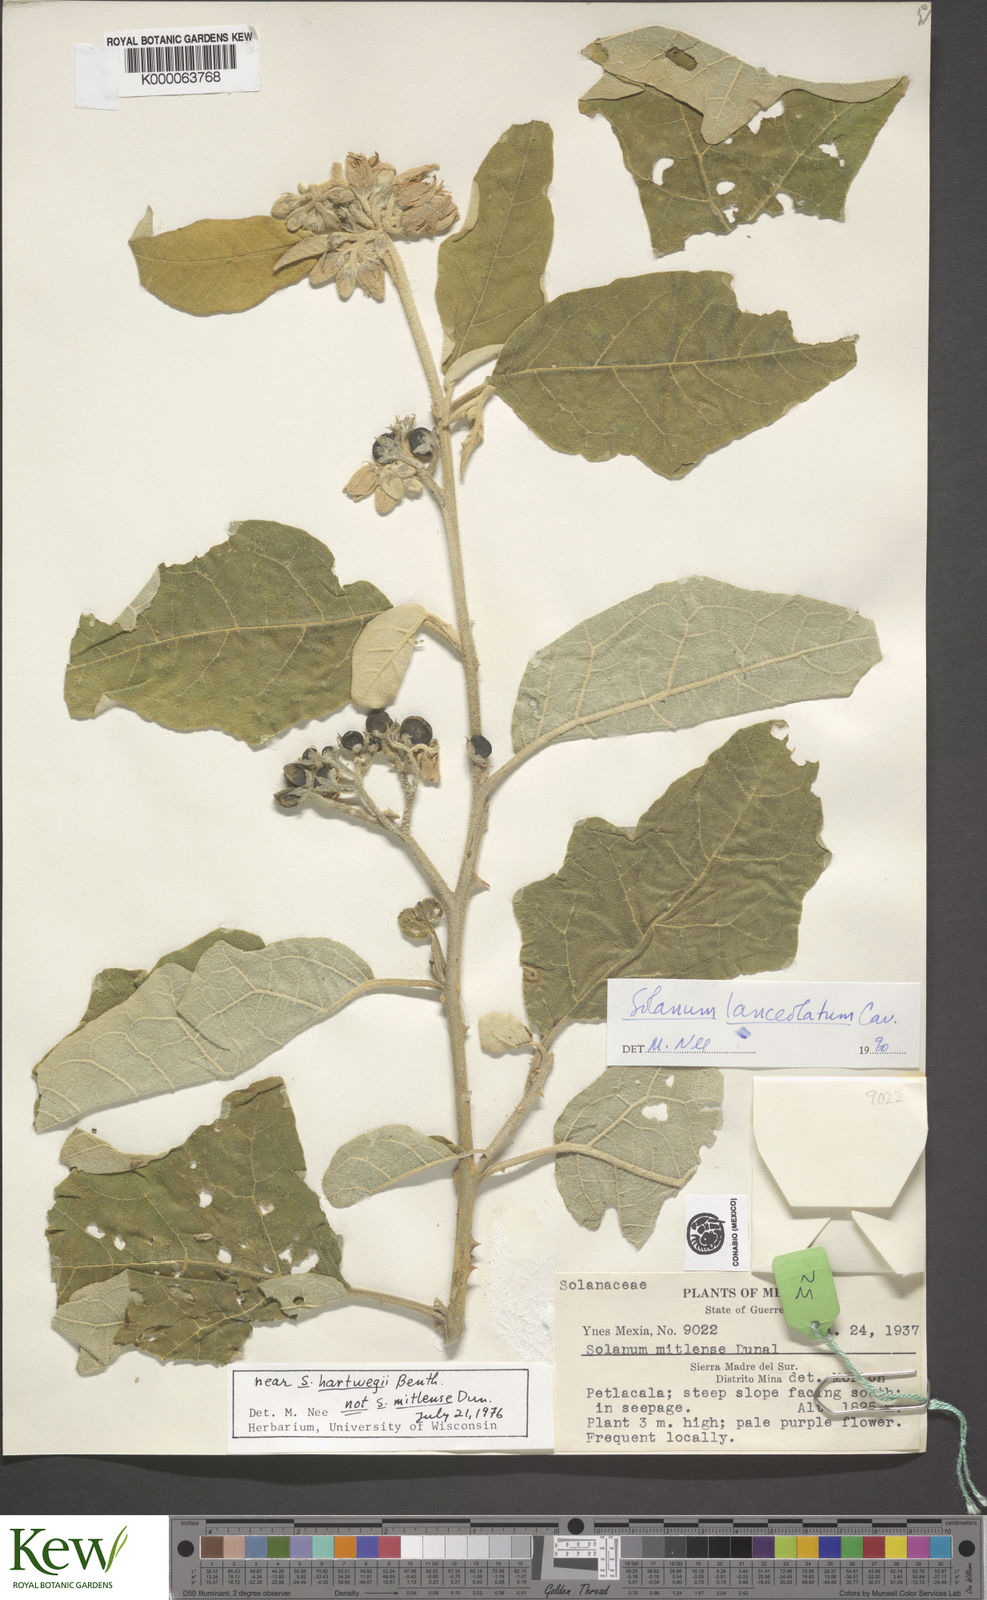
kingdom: Plantae
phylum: Tracheophyta
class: Magnoliopsida
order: Solanales
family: Solanaceae
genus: Solanum
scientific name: Solanum lanceolatum
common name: Orangeberry nightshade
